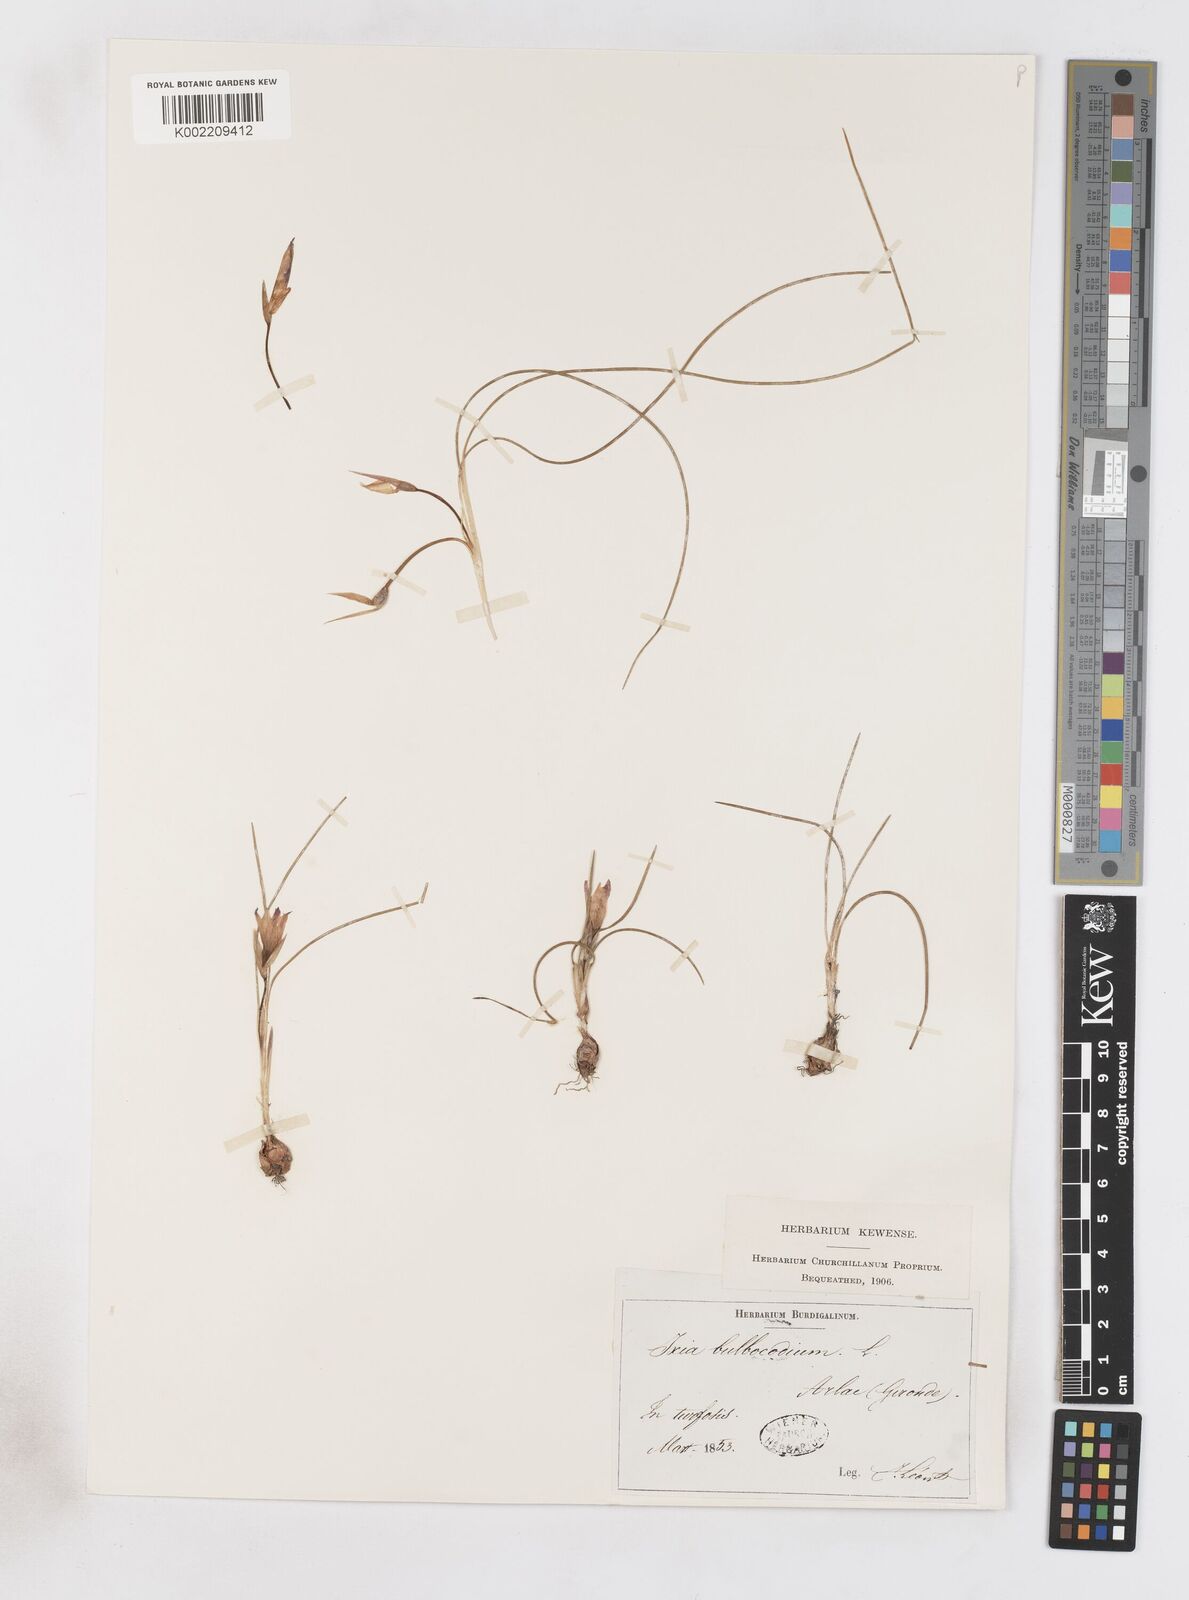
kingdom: Plantae
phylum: Tracheophyta
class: Liliopsida
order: Asparagales
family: Iridaceae
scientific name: Iridaceae
